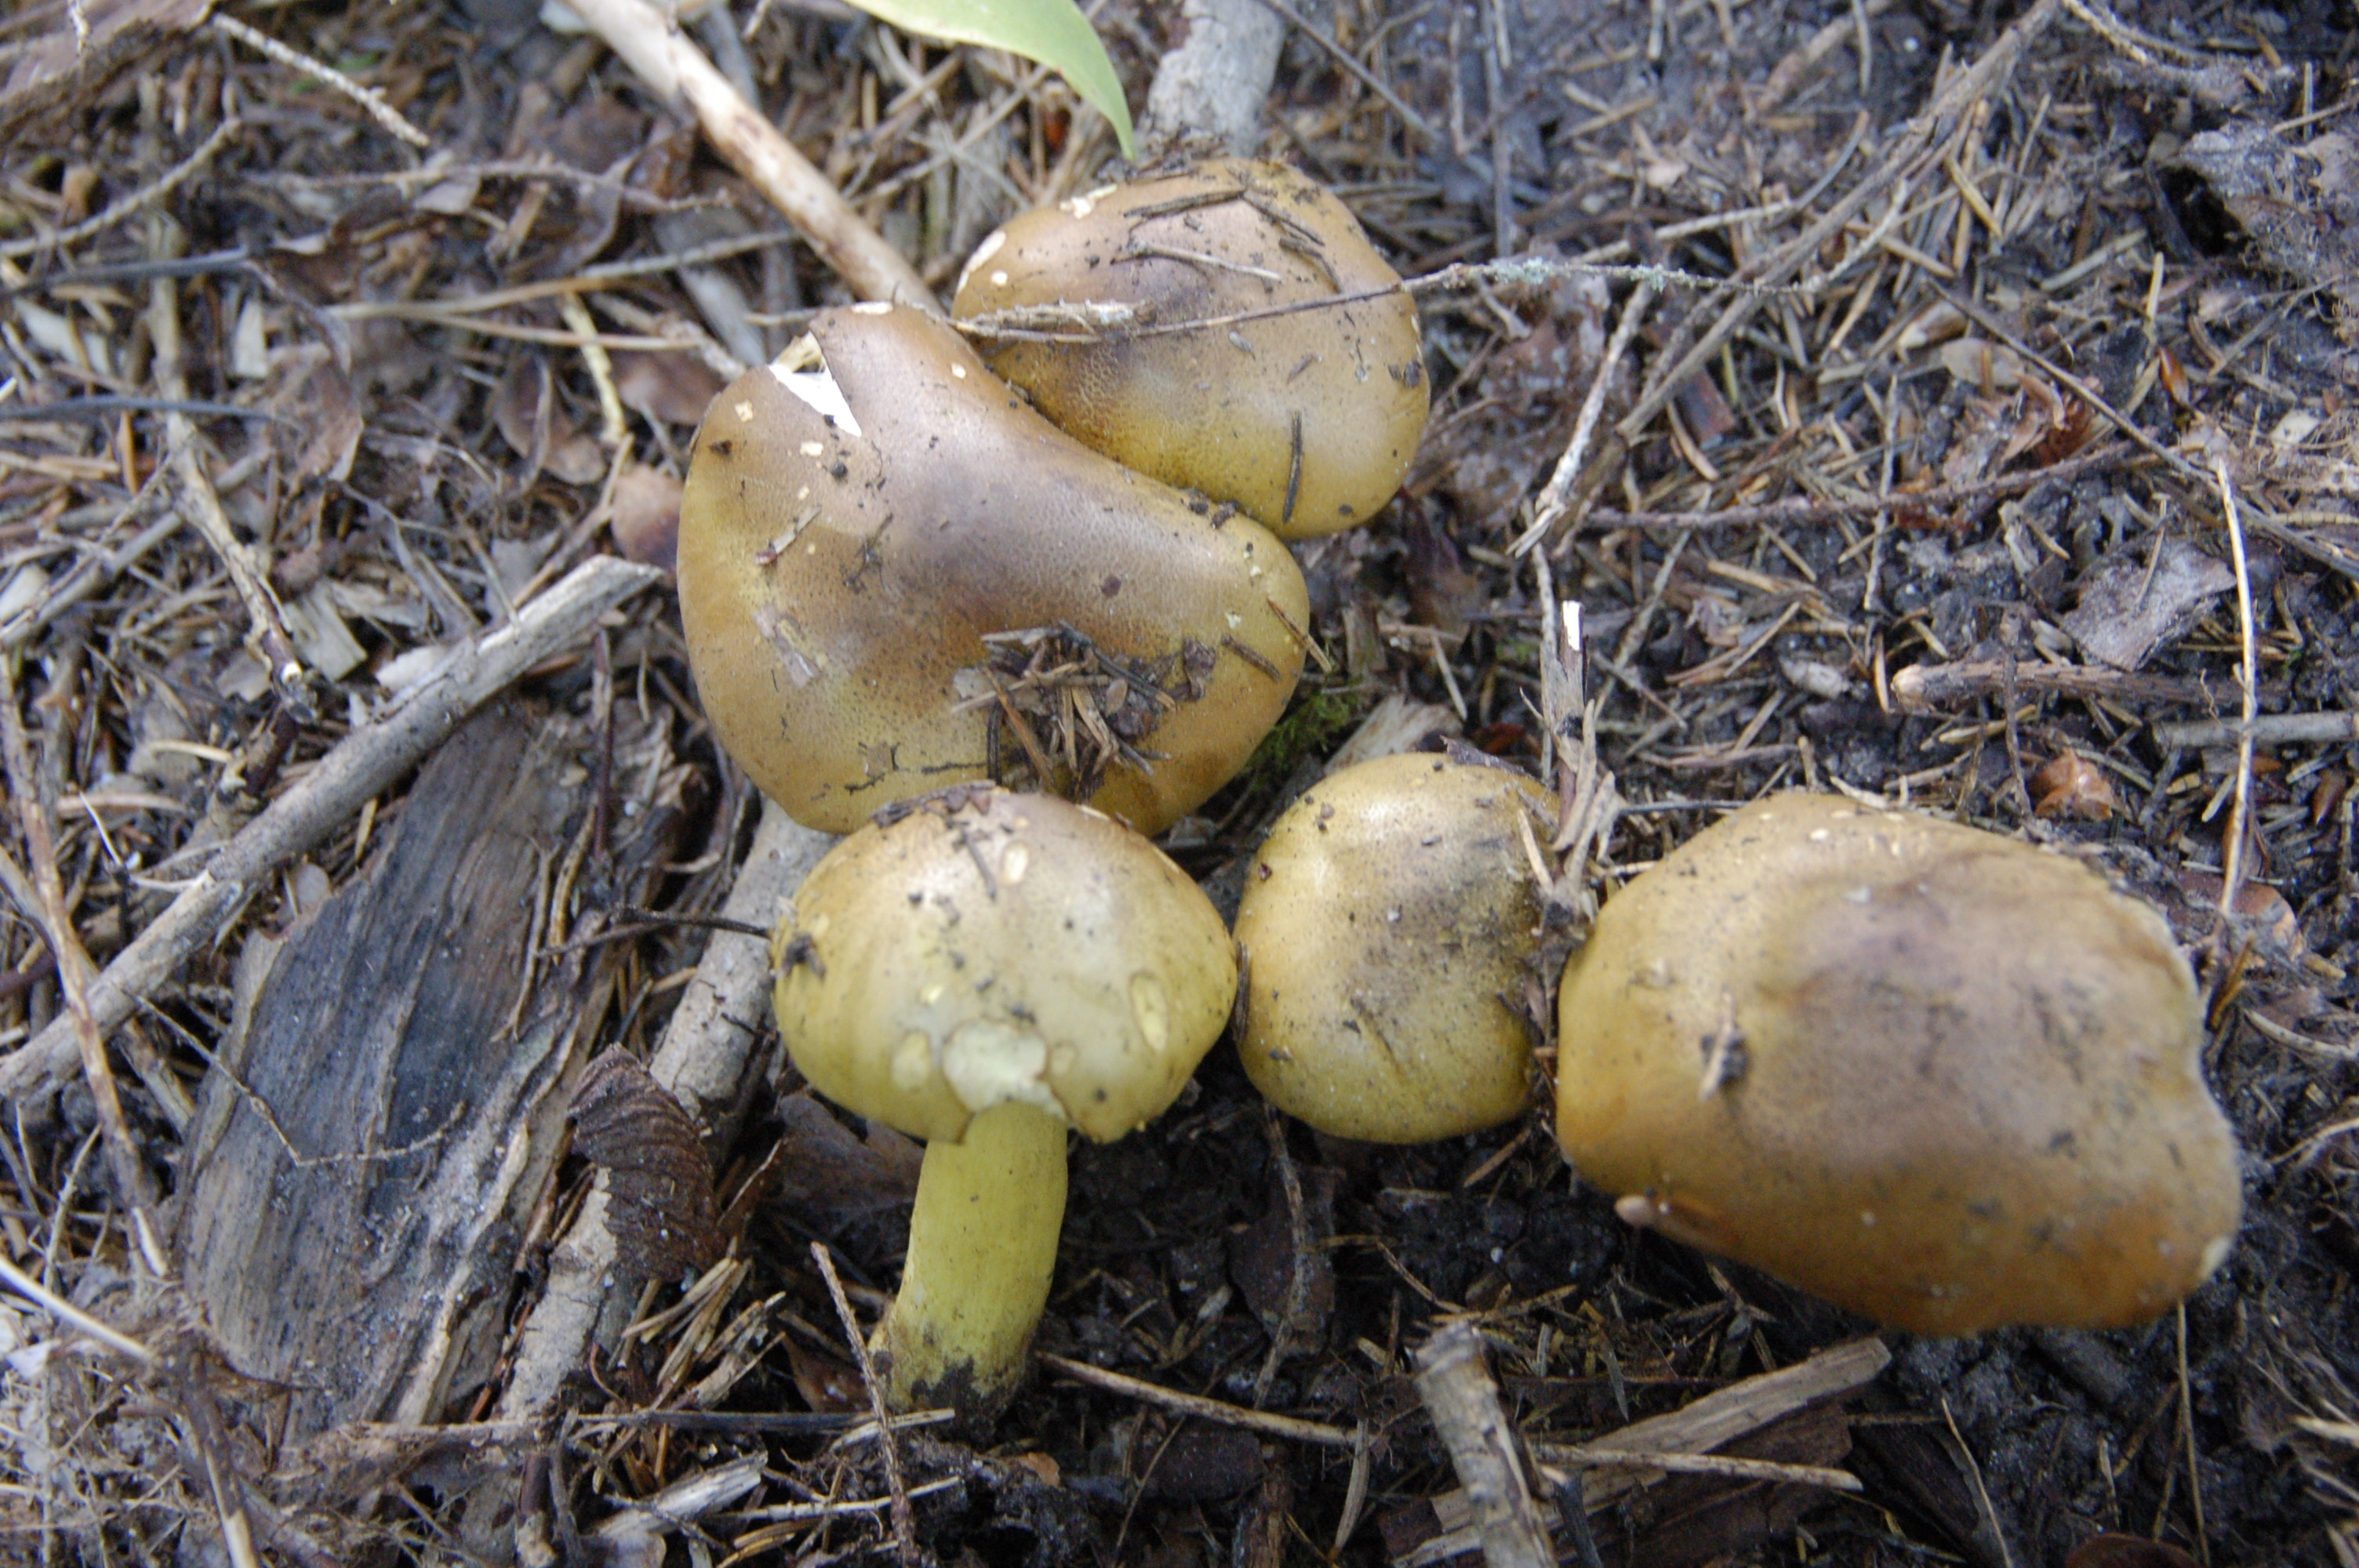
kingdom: Fungi
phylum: Basidiomycota
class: Agaricomycetes
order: Agaricales
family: Tricholomataceae
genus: Tricholoma
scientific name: Tricholoma frondosae
